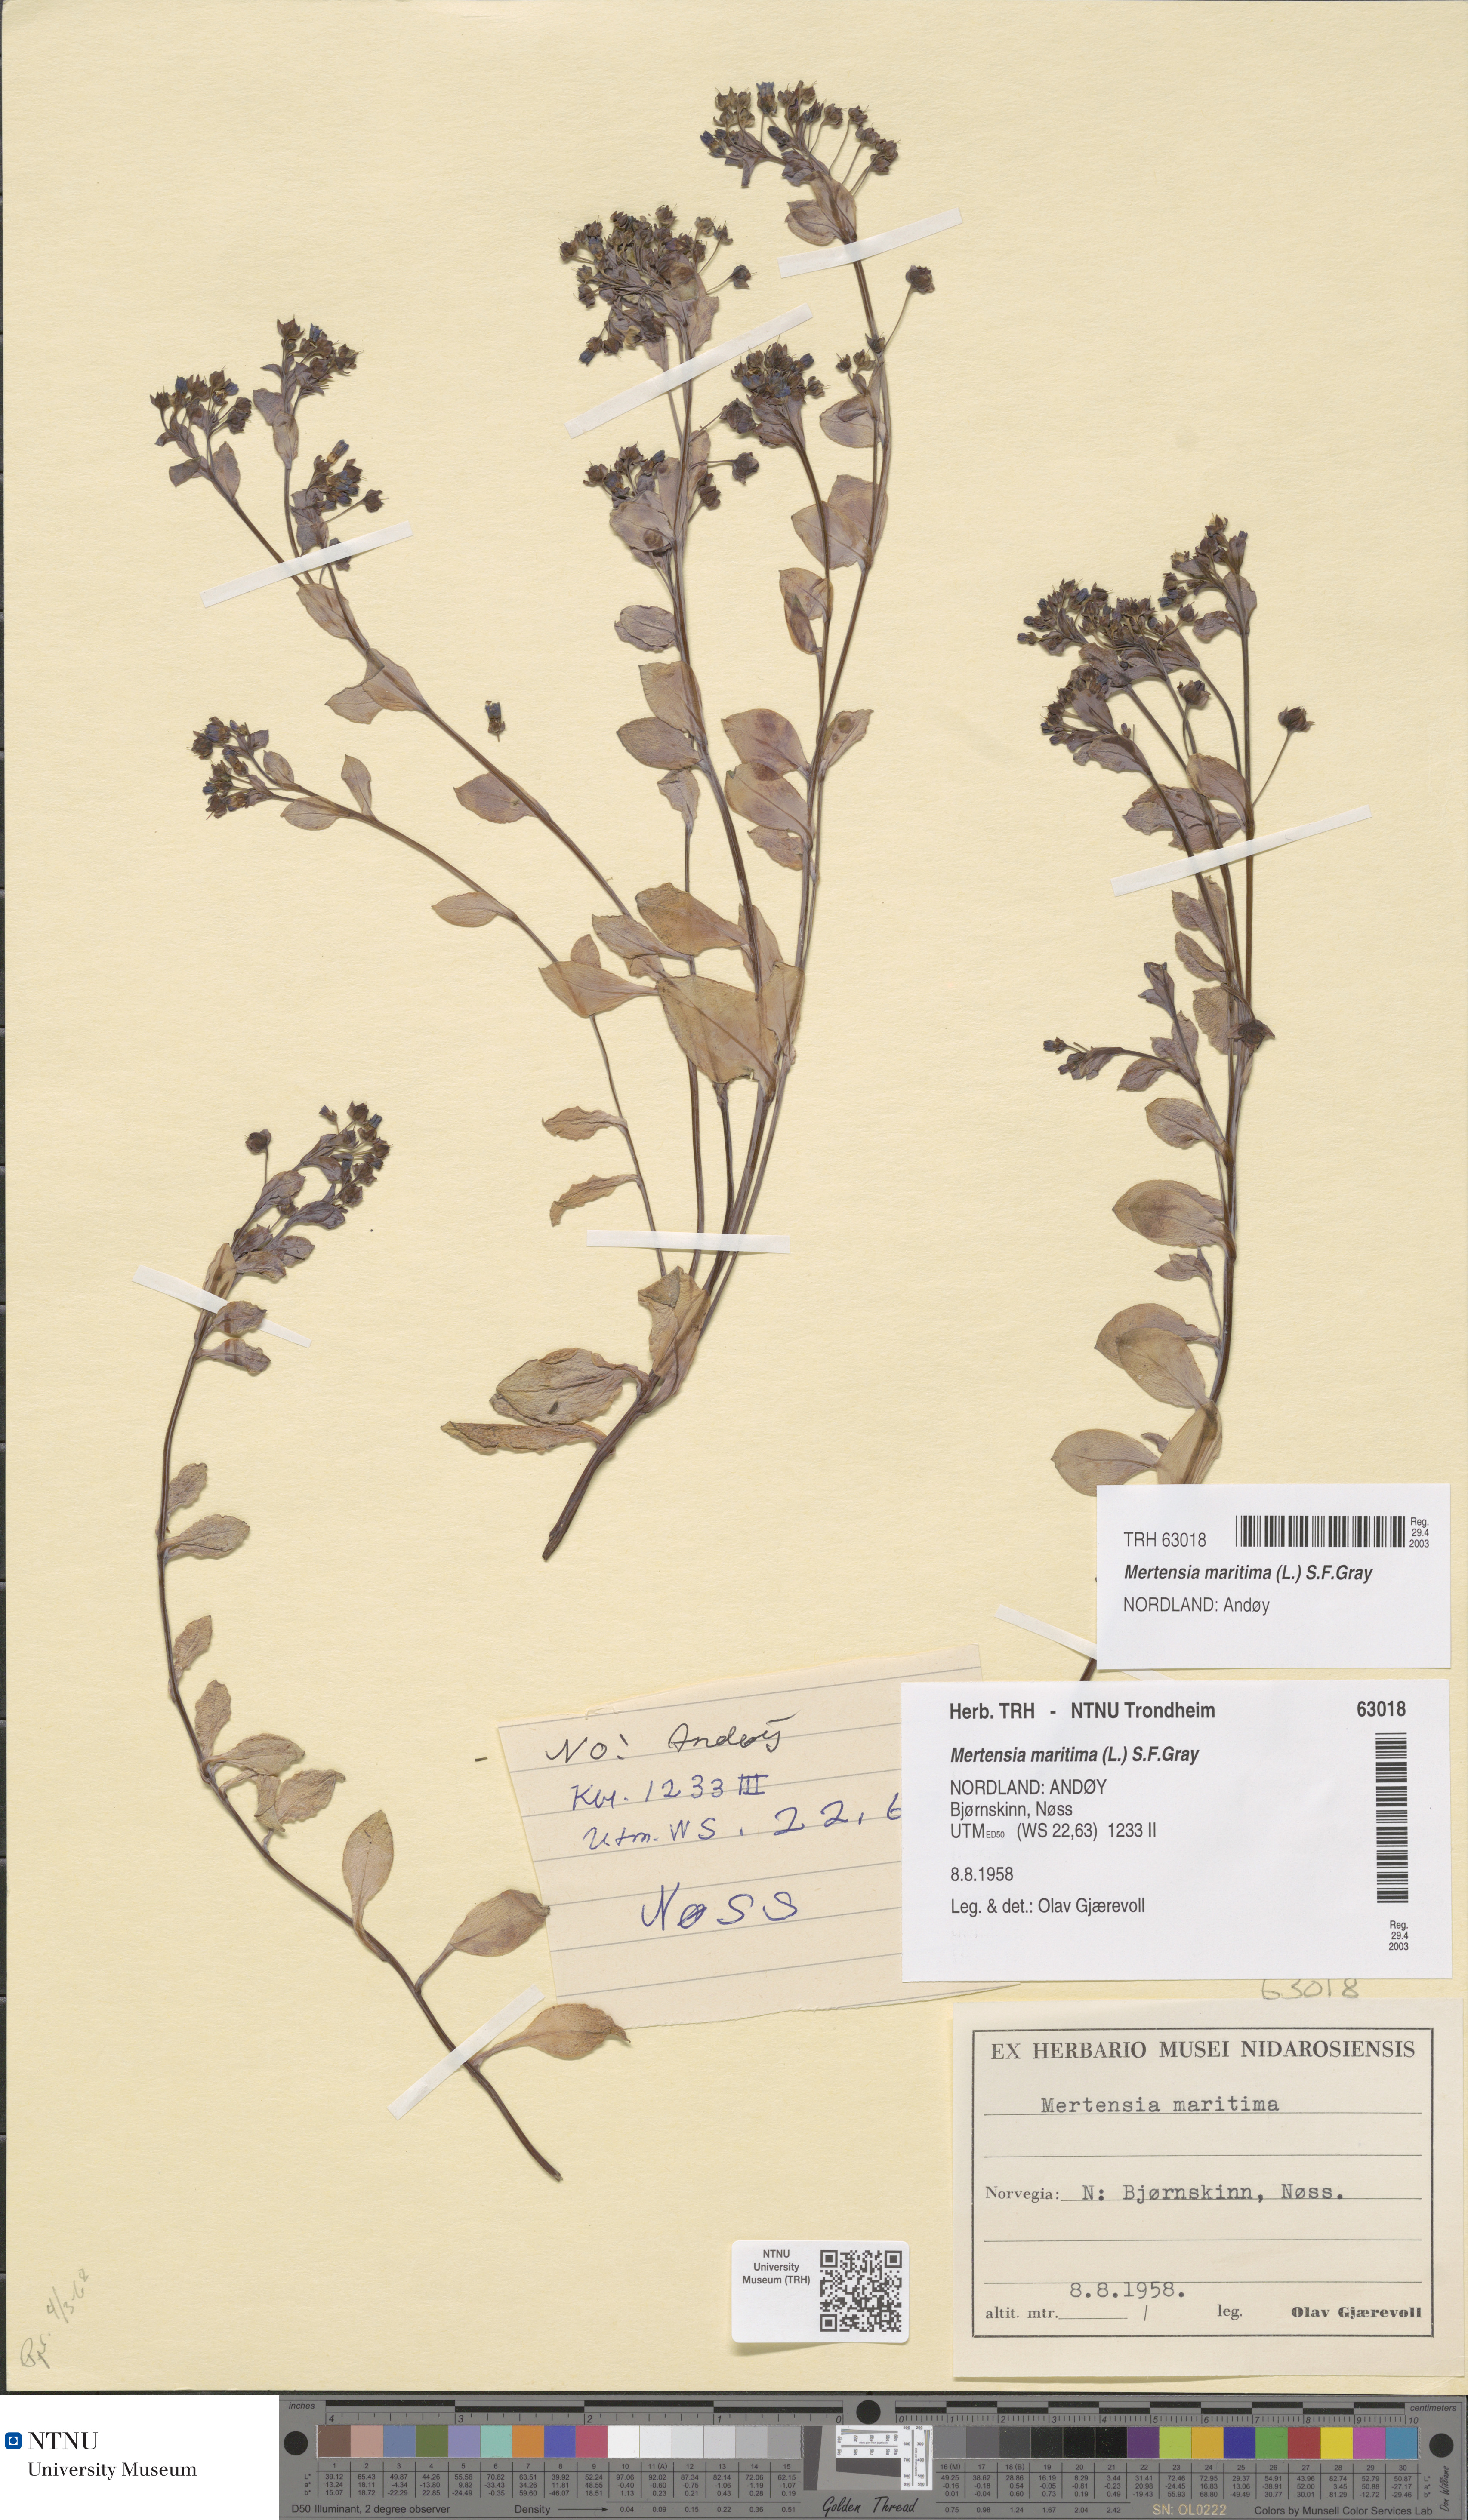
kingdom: Plantae
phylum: Tracheophyta
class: Magnoliopsida
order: Boraginales
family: Boraginaceae
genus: Mertensia
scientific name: Mertensia maritima
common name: Oysterplant
